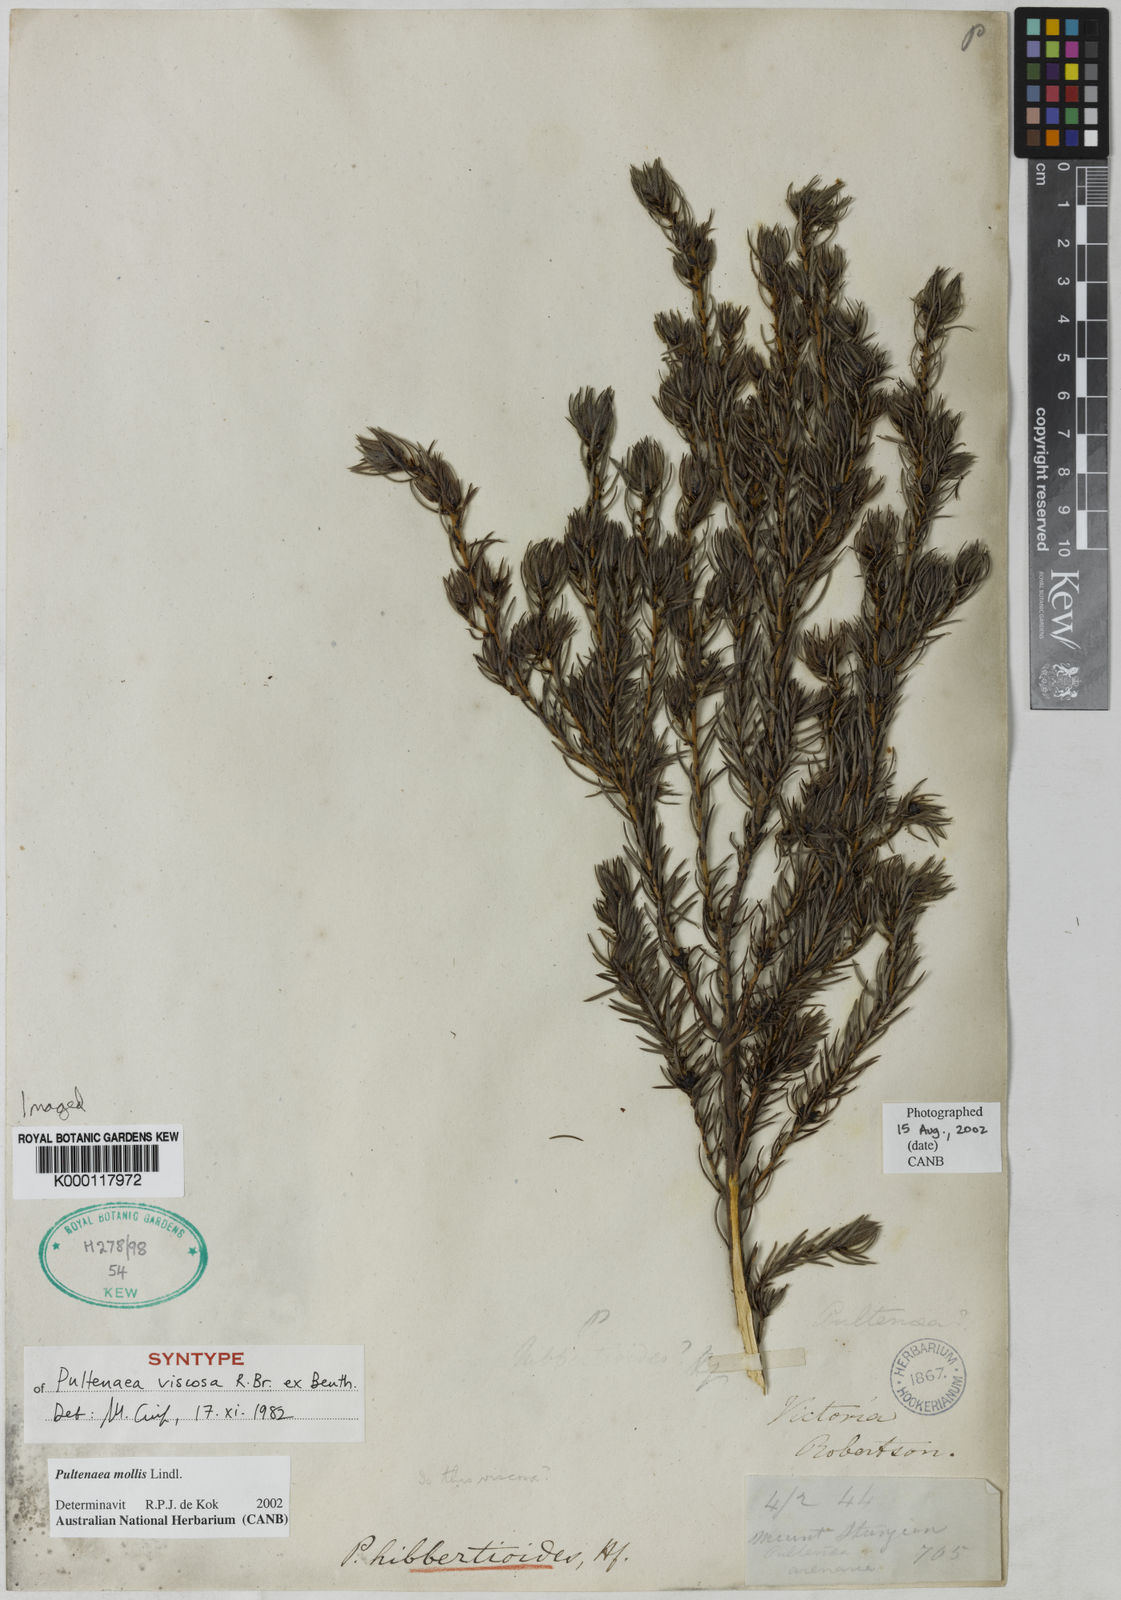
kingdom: Plantae
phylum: Tracheophyta
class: Magnoliopsida
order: Fabales
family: Fabaceae
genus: Pultenaea
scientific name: Pultenaea mollis
